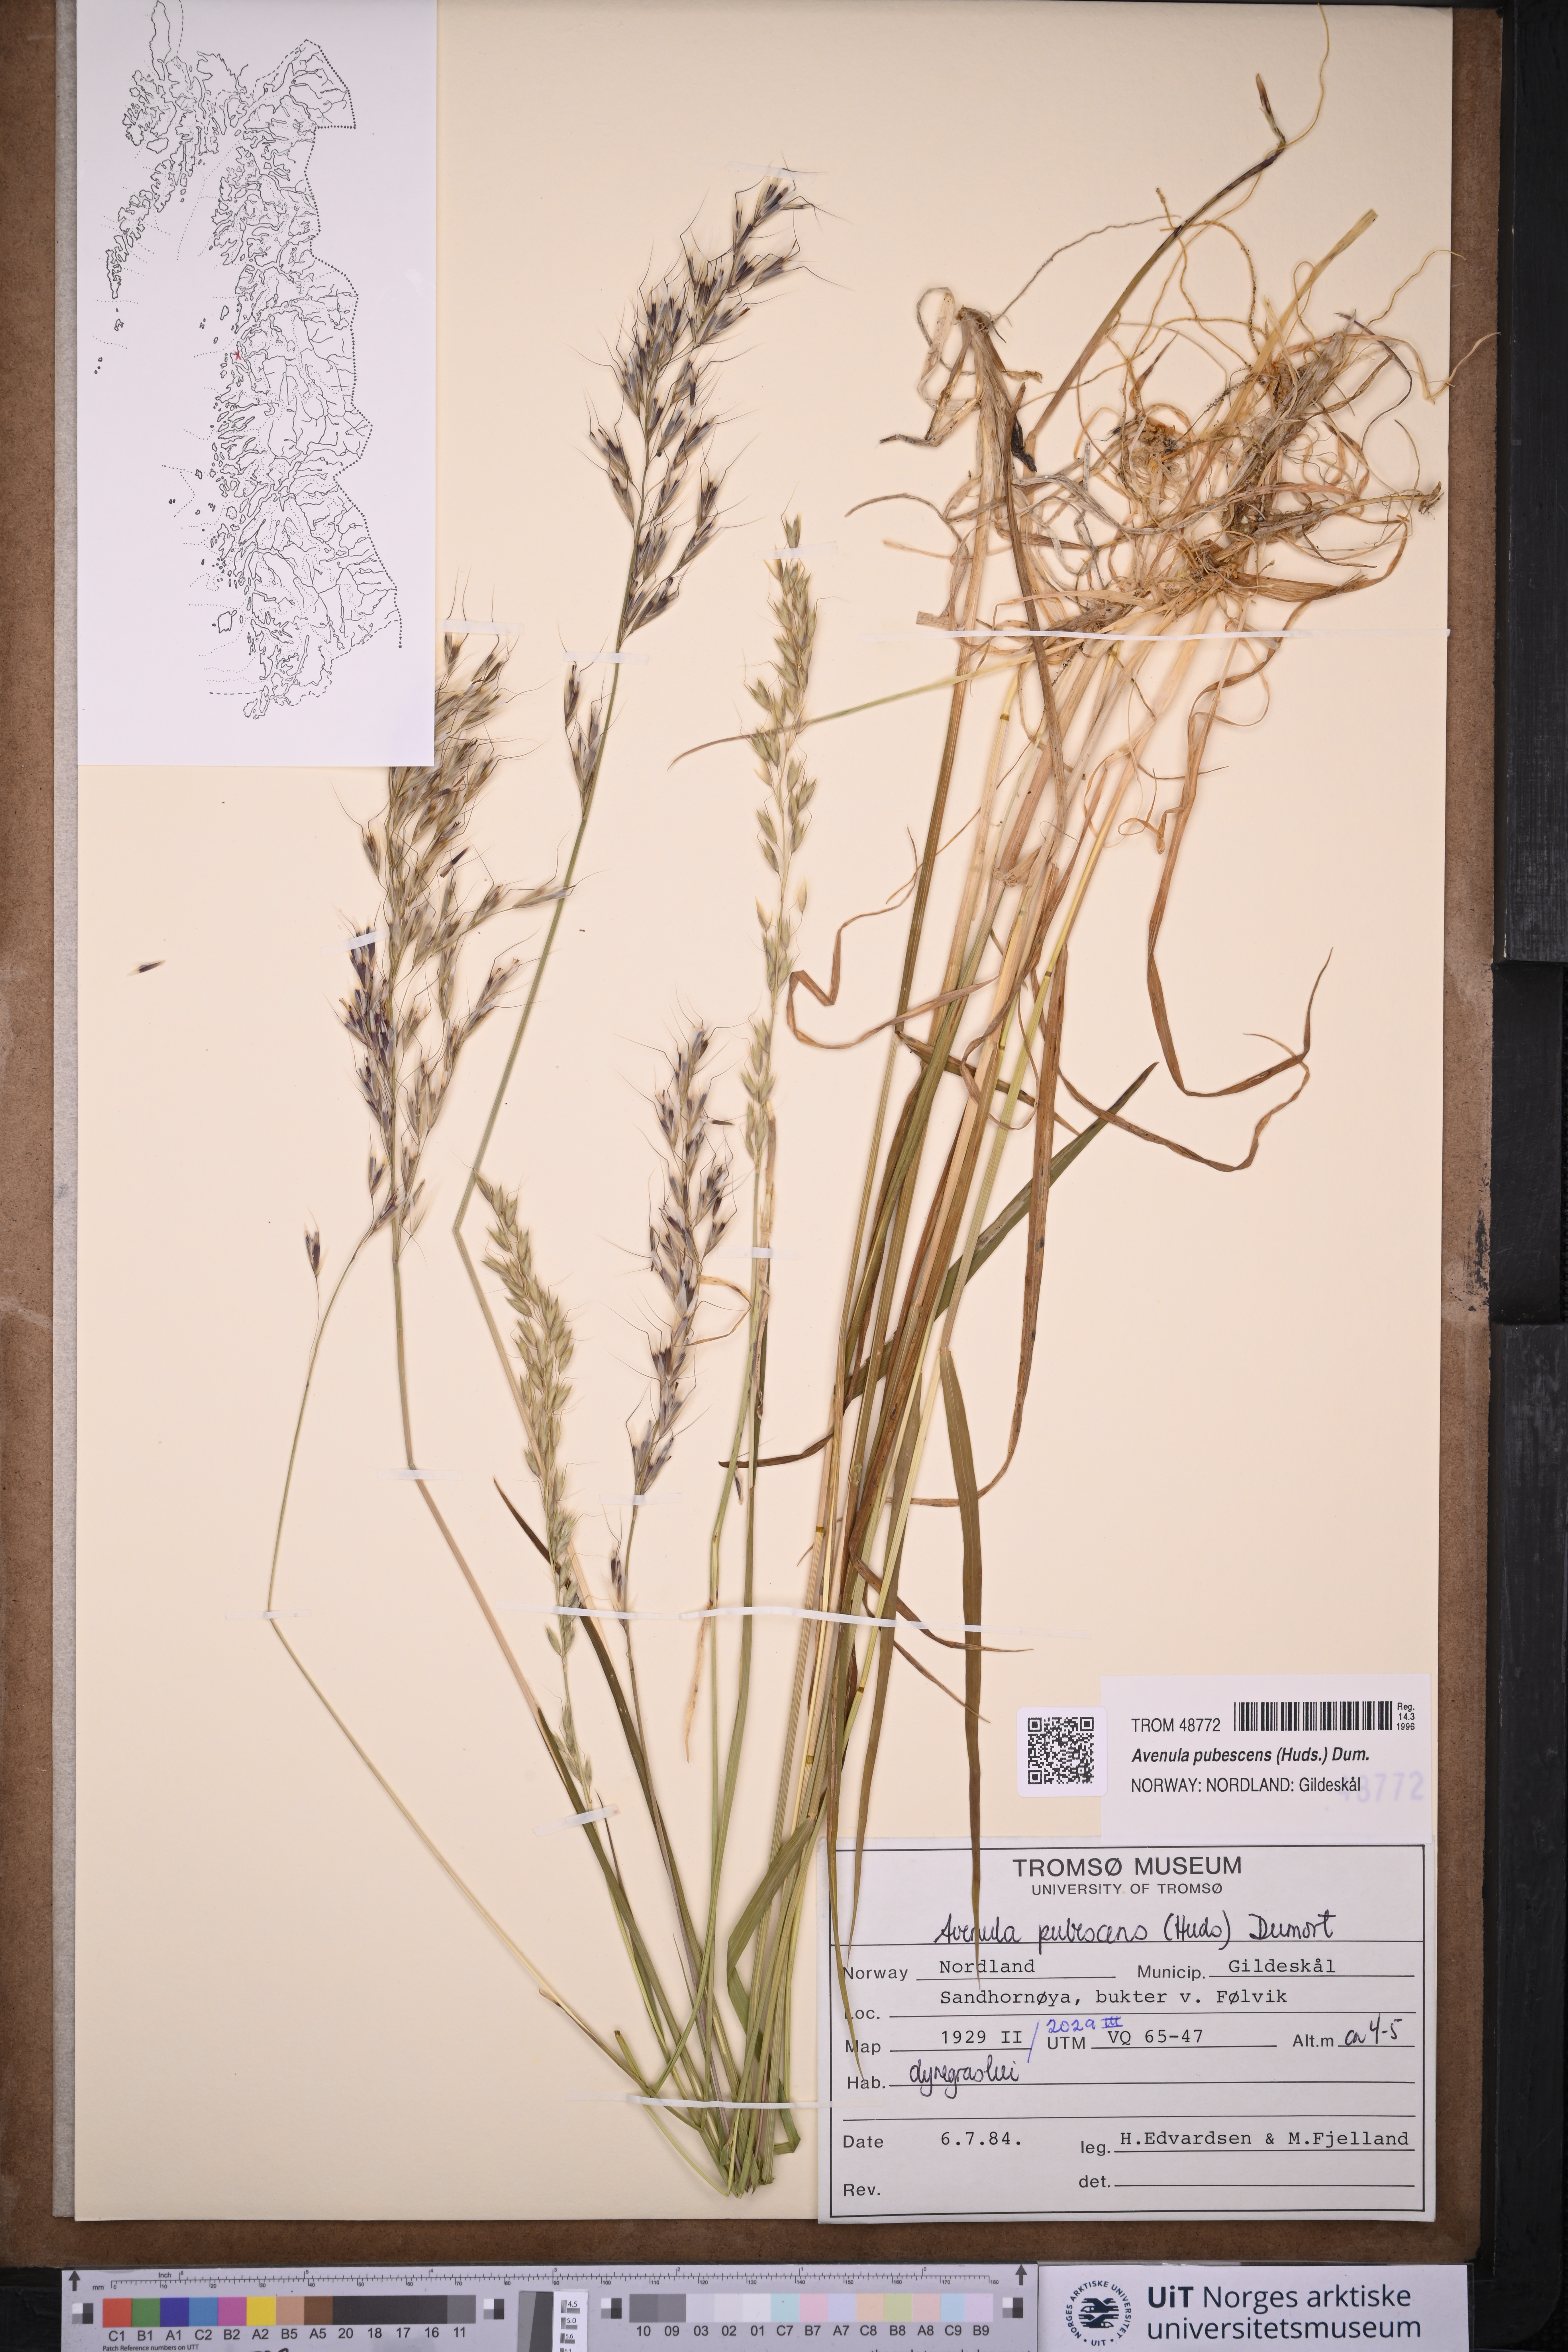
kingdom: Plantae
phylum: Tracheophyta
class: Liliopsida
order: Poales
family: Poaceae
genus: Avenula
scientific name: Avenula pubescens
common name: Downy alpine oatgrass
